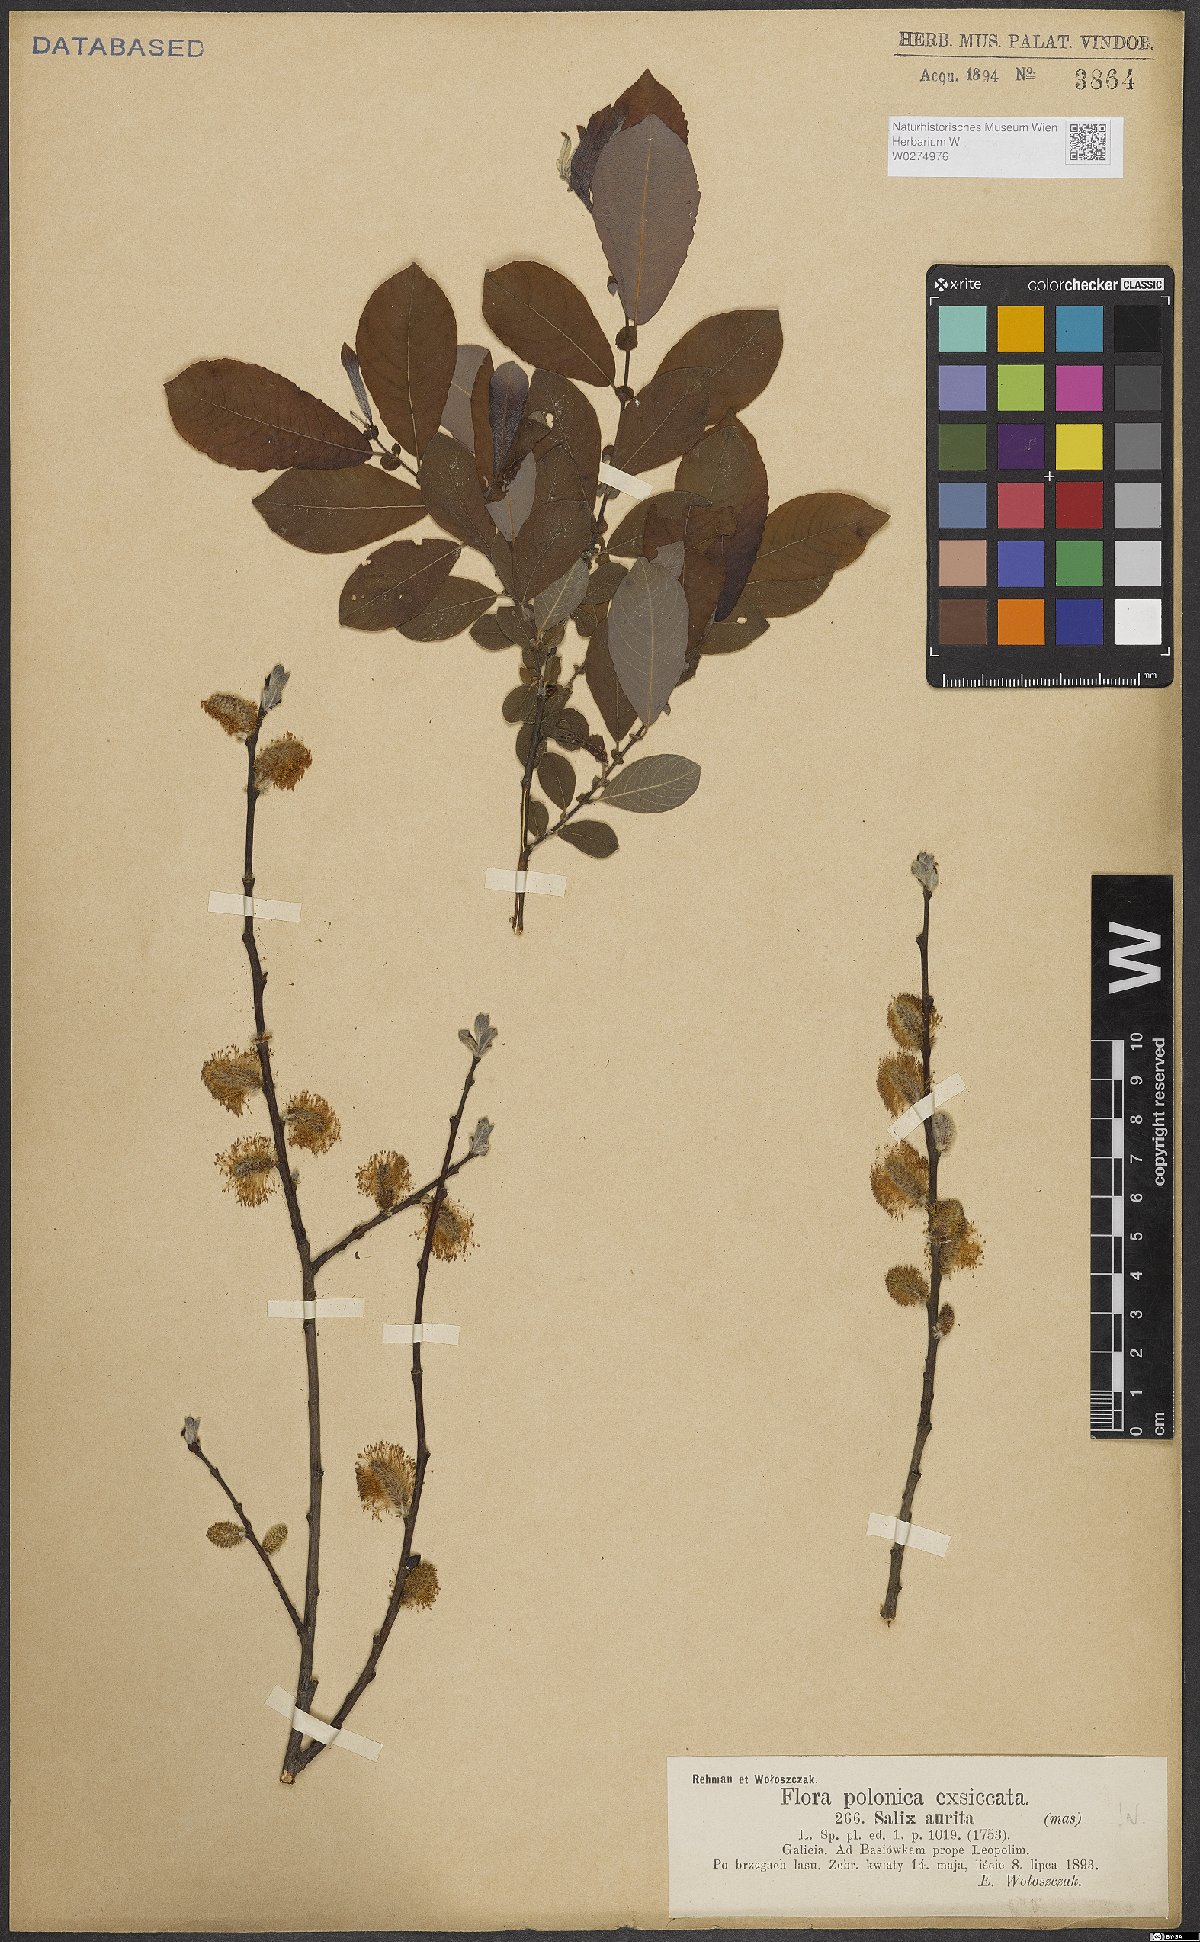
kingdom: Plantae
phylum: Tracheophyta
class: Magnoliopsida
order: Malpighiales
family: Salicaceae
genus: Salix
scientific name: Salix aurita
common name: Eared willow
